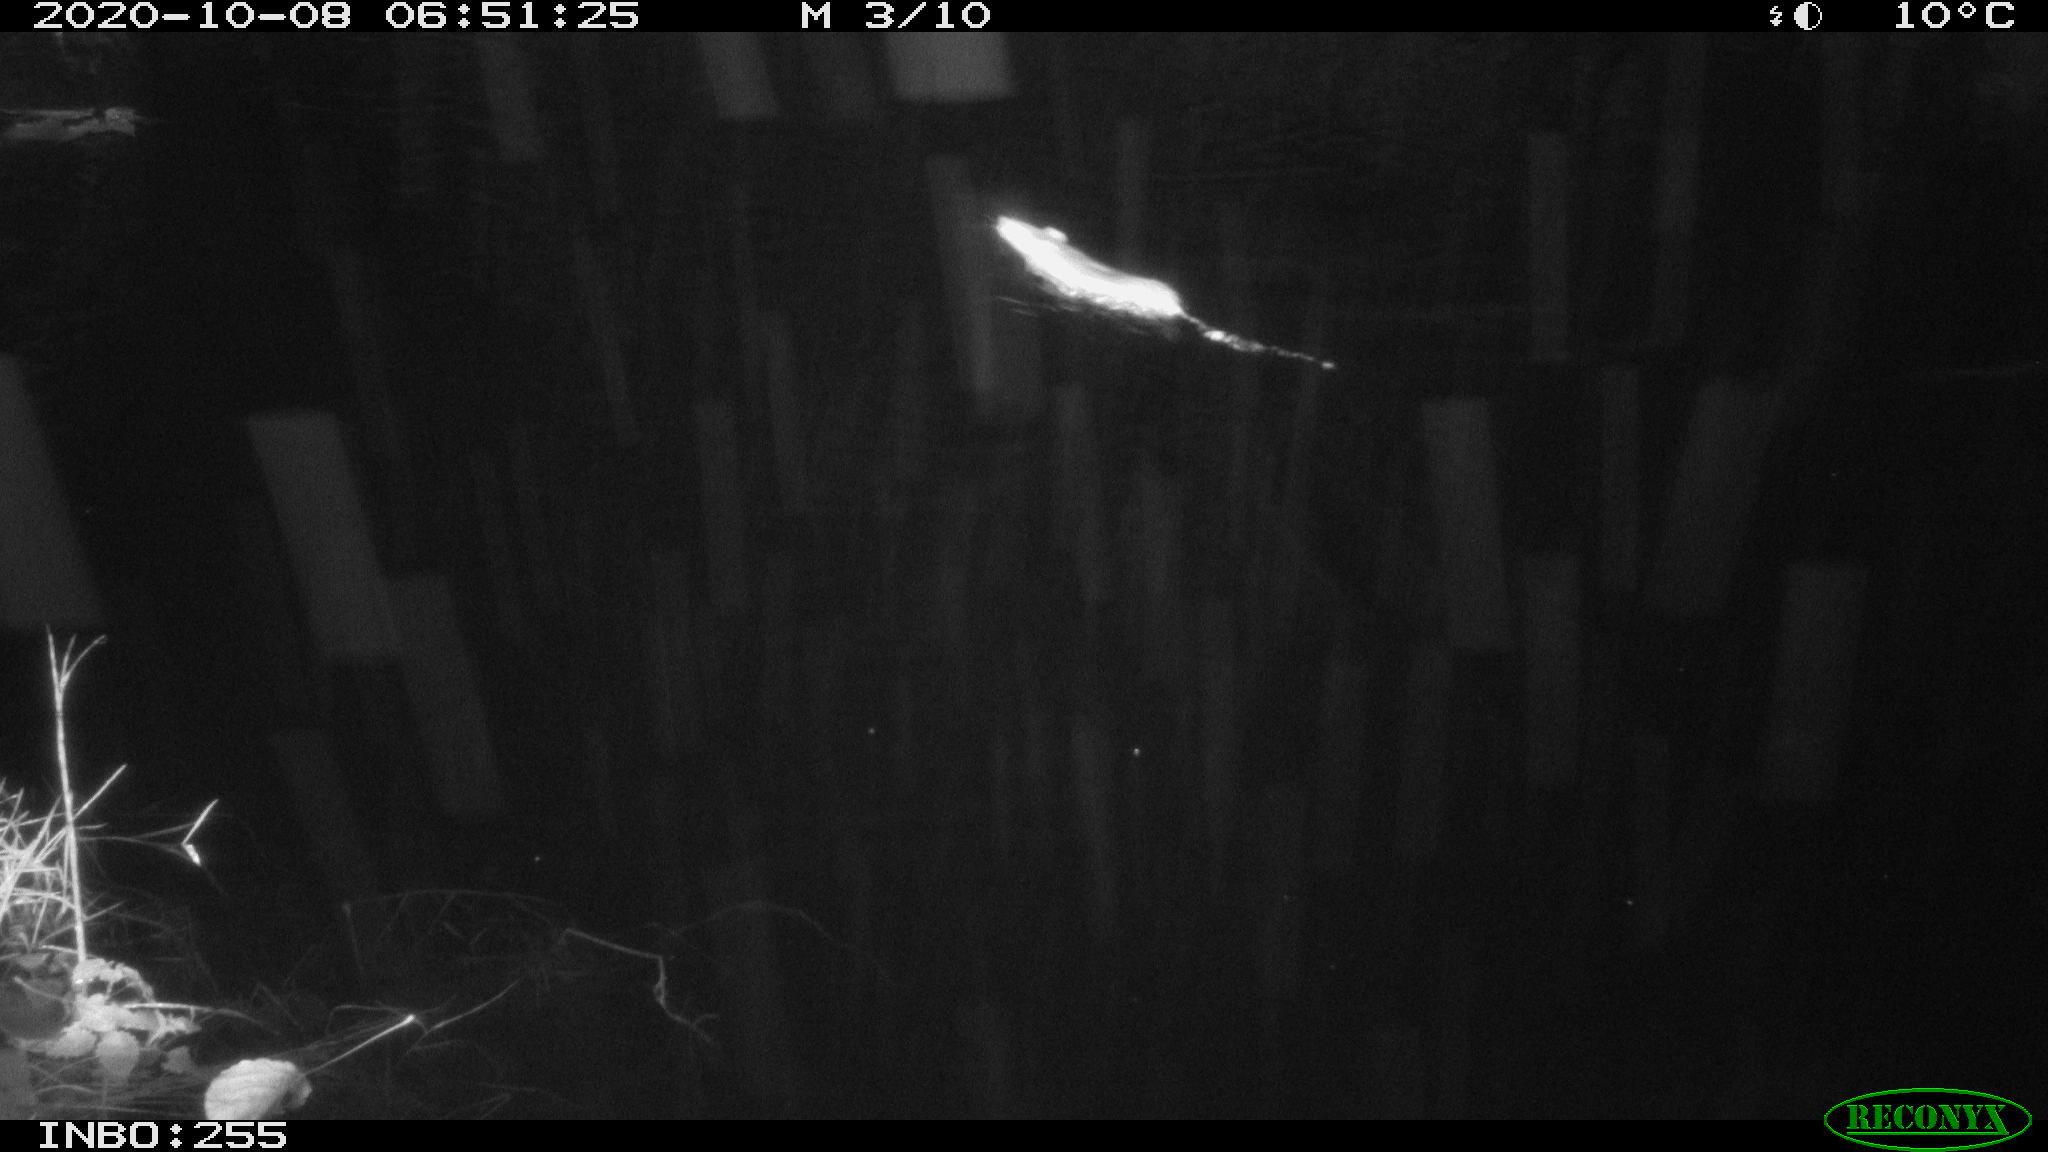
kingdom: Animalia
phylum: Chordata
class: Mammalia
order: Rodentia
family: Muridae
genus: Rattus
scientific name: Rattus norvegicus
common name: Brown rat
